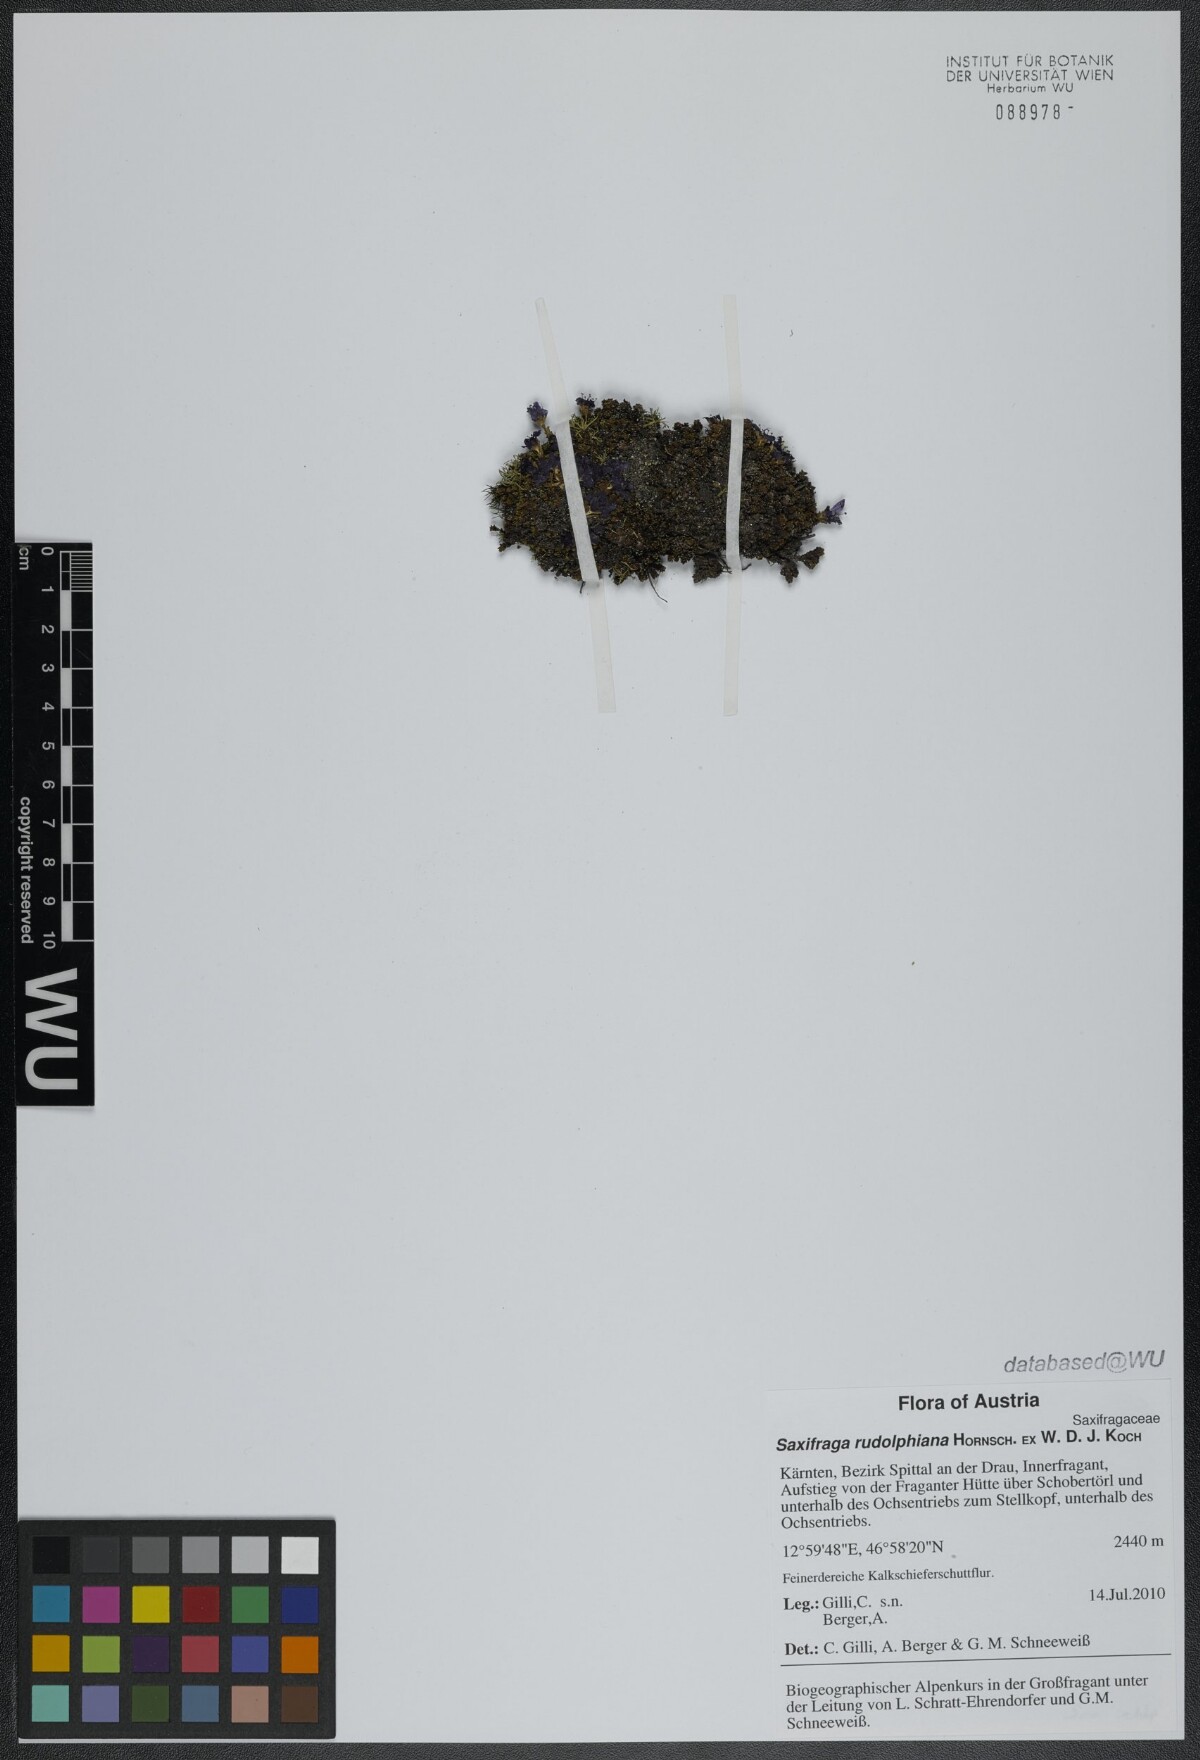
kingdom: Plantae
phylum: Tracheophyta
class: Magnoliopsida
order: Saxifragales
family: Saxifragaceae
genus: Saxifraga
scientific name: Saxifraga oppositifolia
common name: Purple saxifrage
